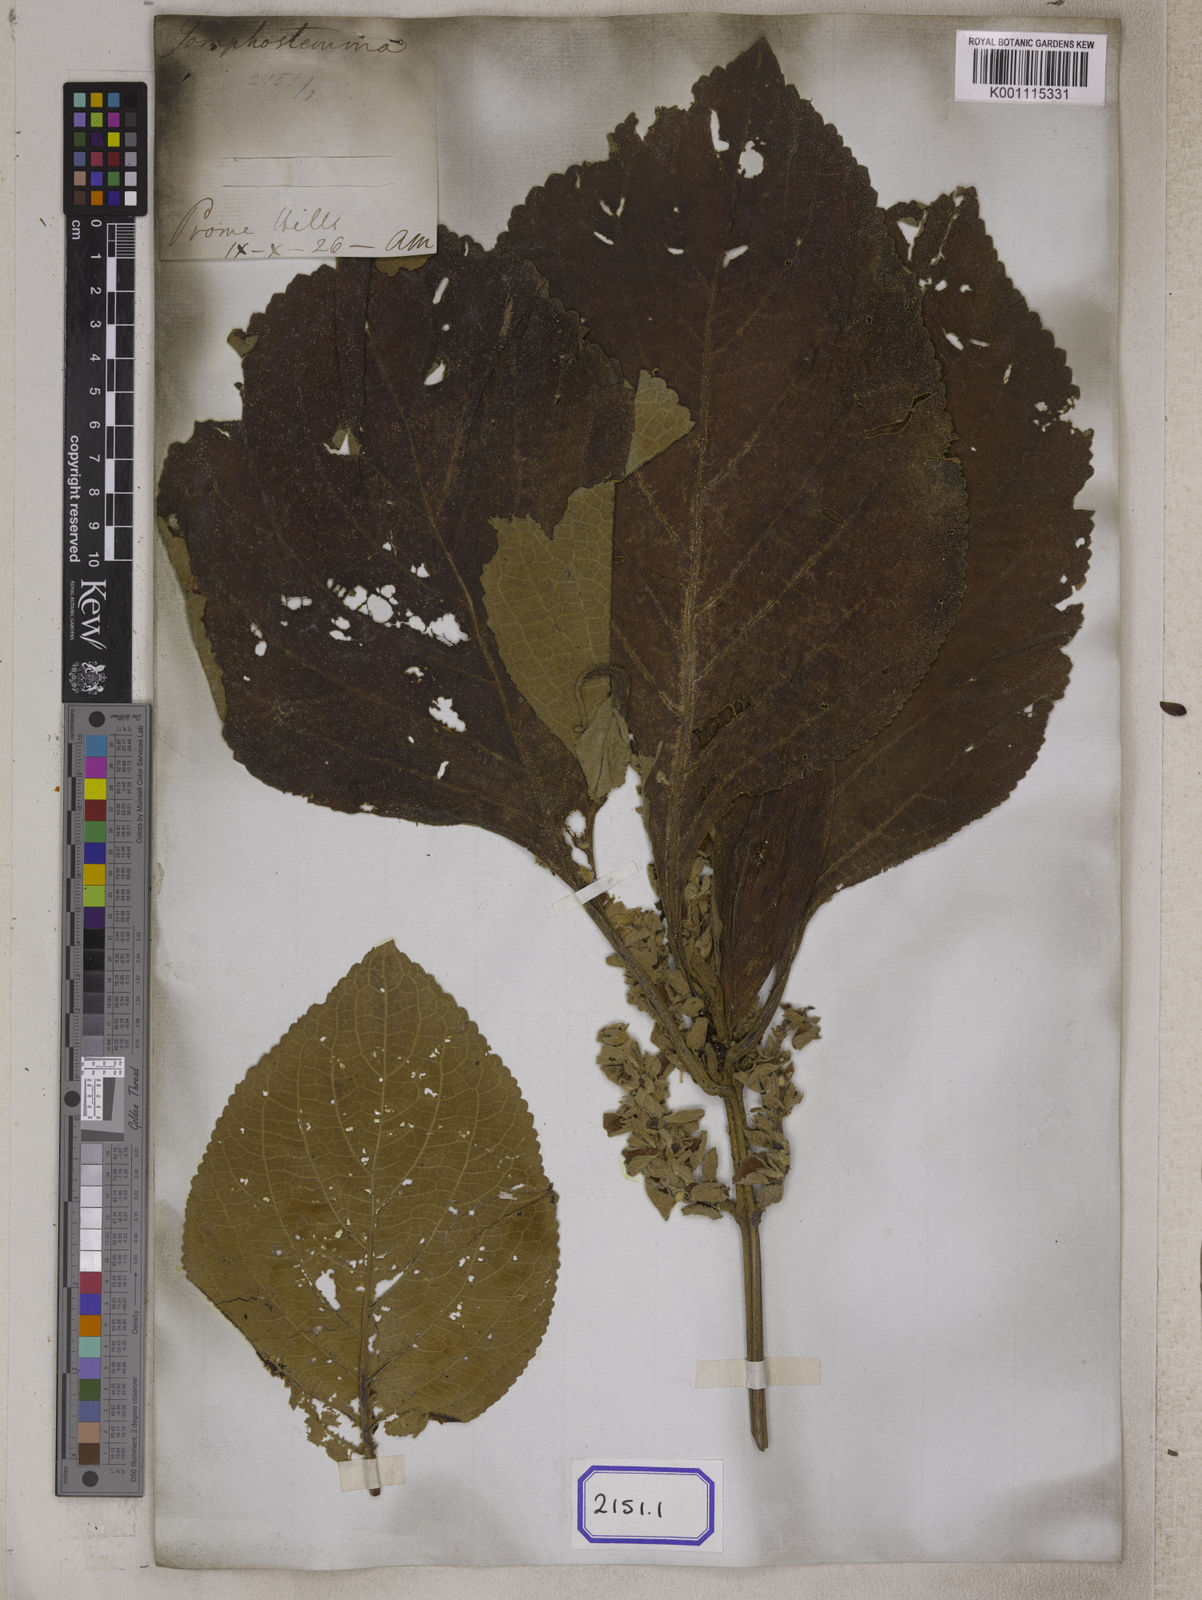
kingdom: Plantae
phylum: Tracheophyta
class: Magnoliopsida
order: Lamiales
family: Lamiaceae
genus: Gomphostemma
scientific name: Gomphostemma
